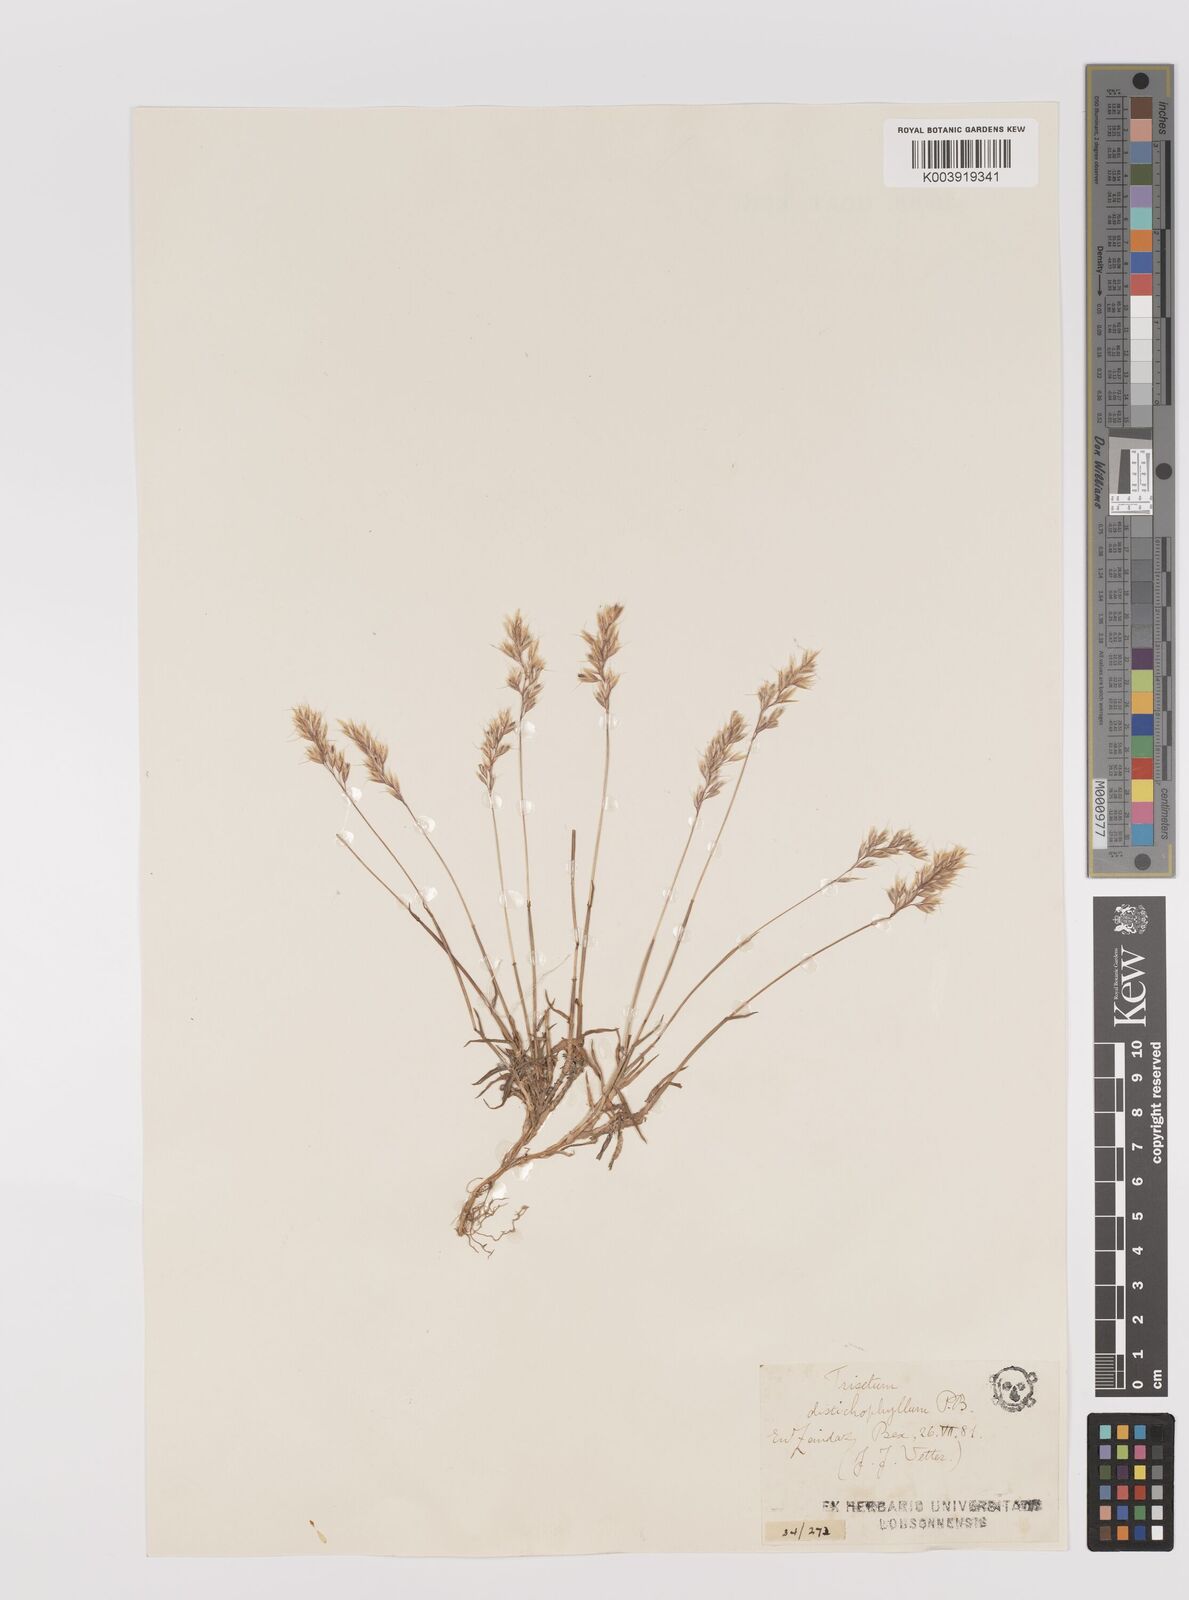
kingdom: Plantae
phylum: Tracheophyta
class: Liliopsida
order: Poales
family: Poaceae
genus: Acrospelion
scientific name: Acrospelion distichophyllum
